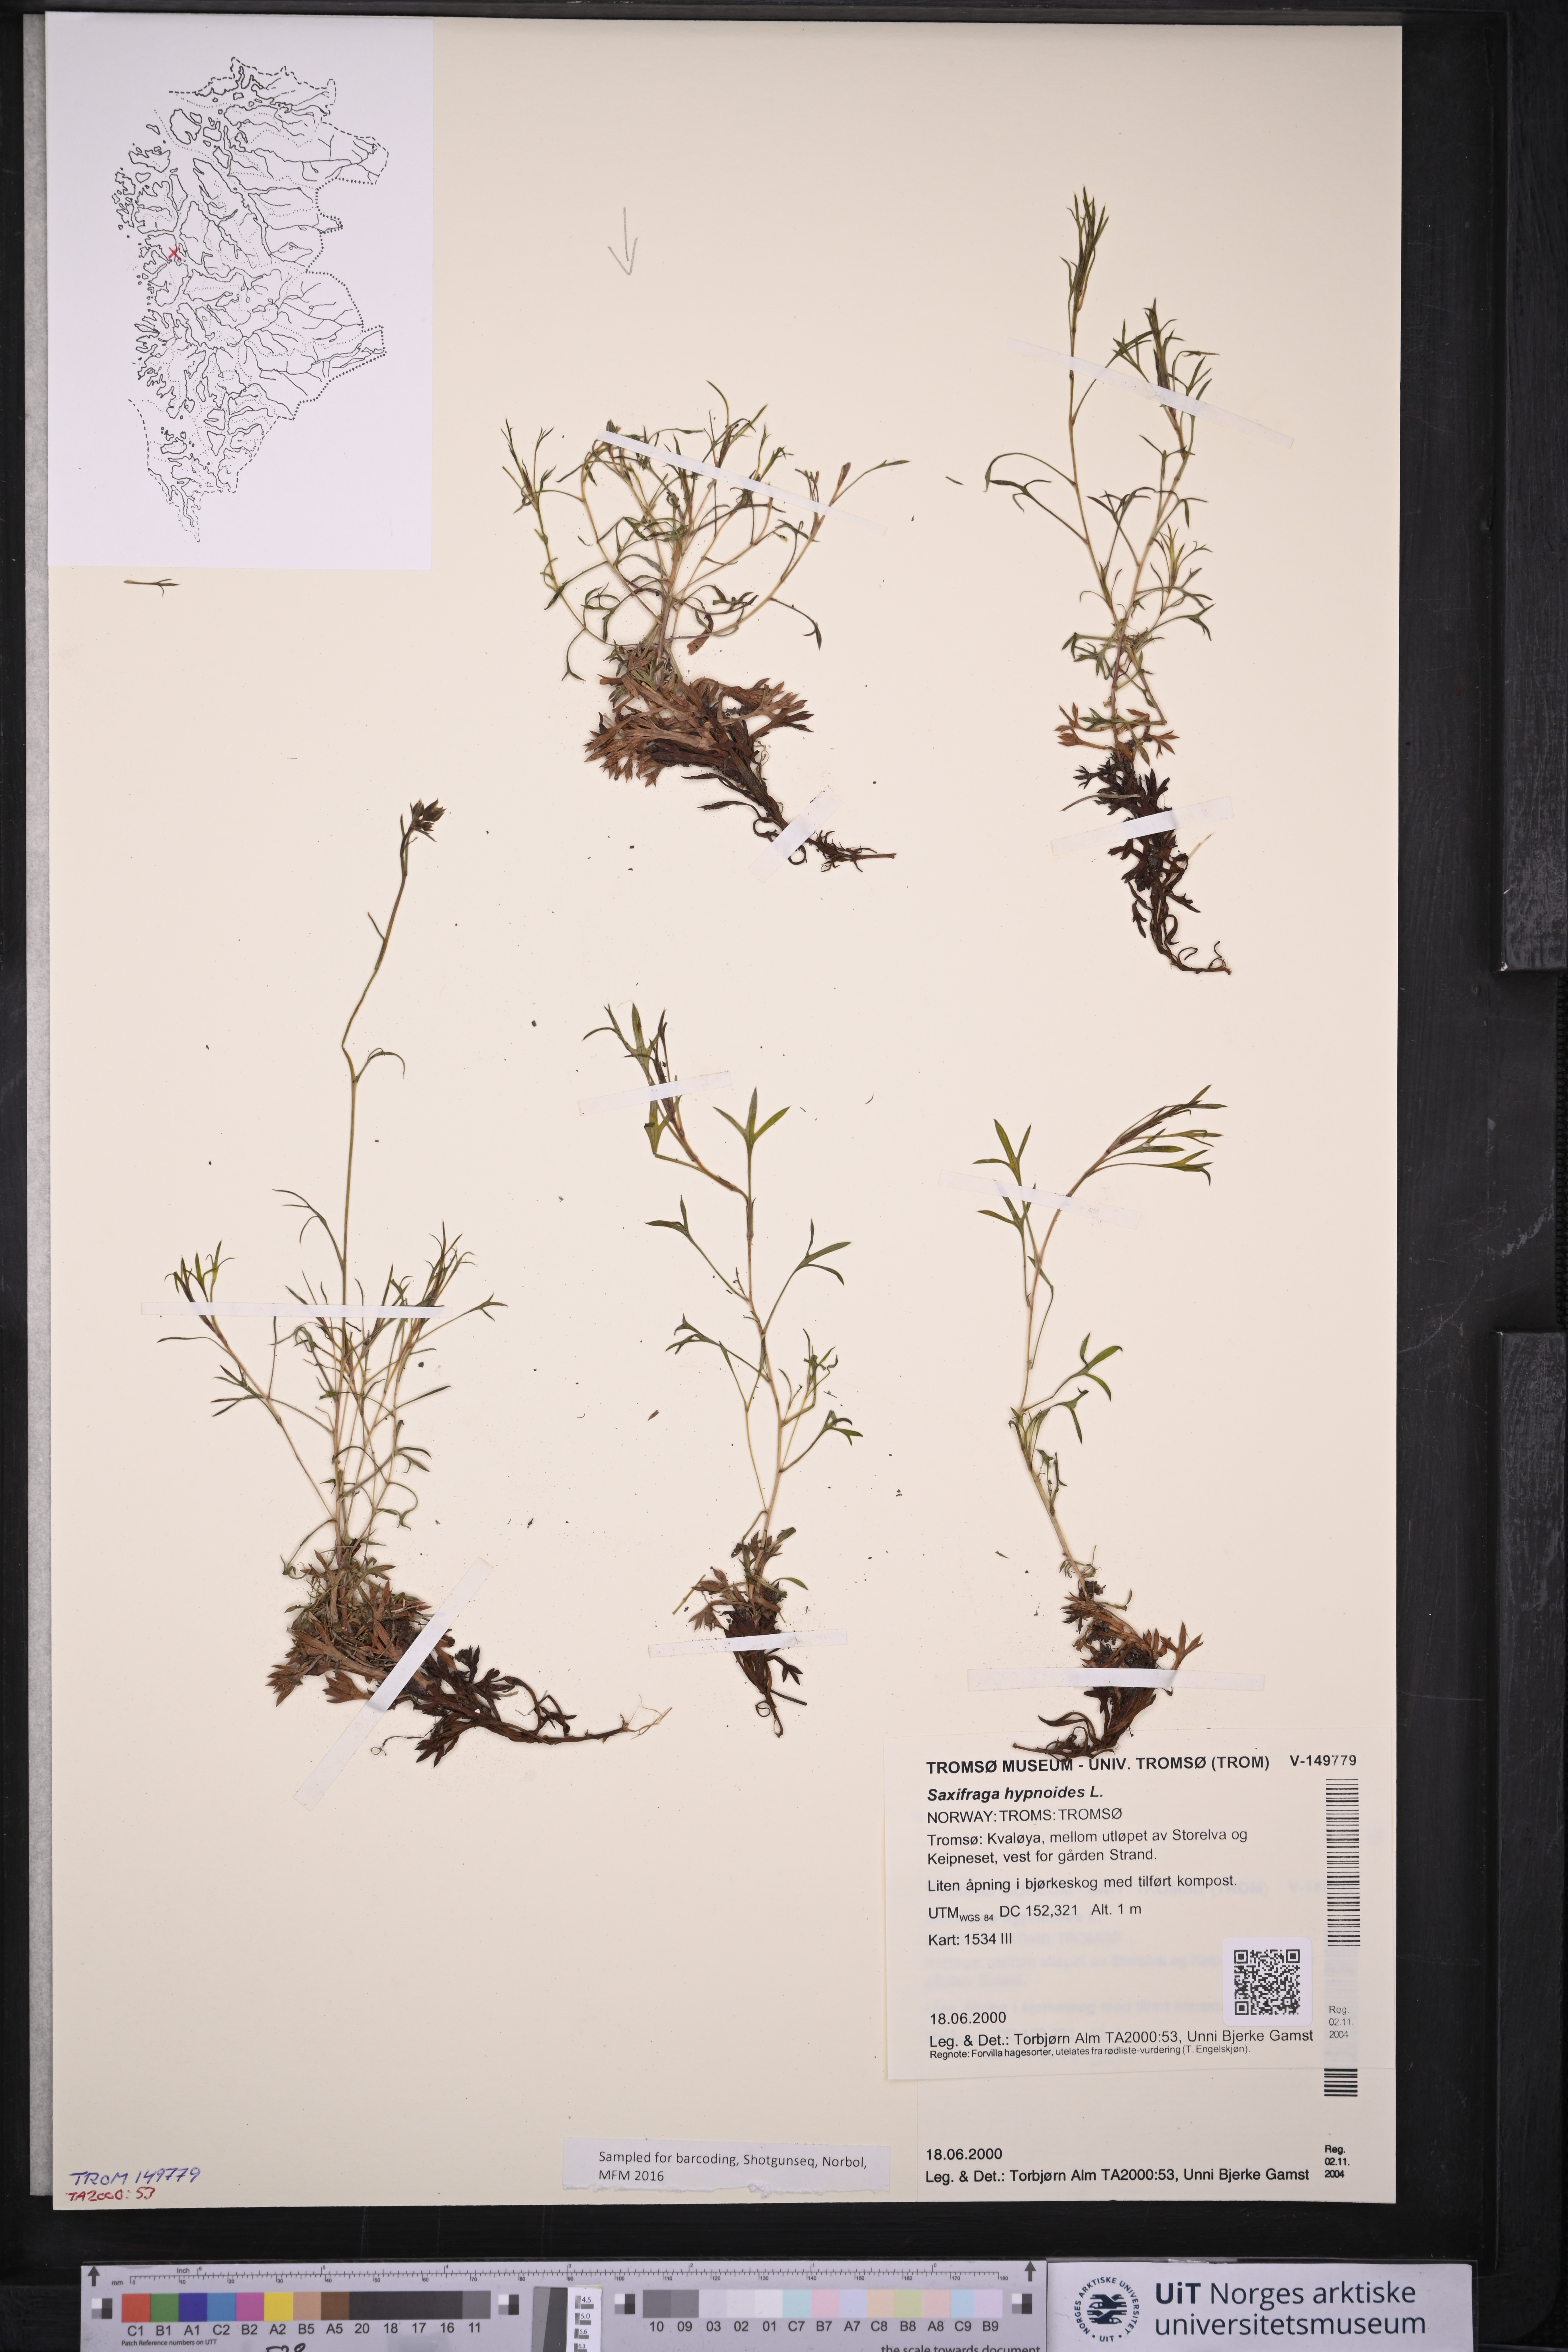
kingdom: Plantae
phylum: Tracheophyta
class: Magnoliopsida
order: Saxifragales
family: Saxifragaceae
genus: Saxifraga
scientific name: Saxifraga hypnoides
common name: Mossy saxifrage
